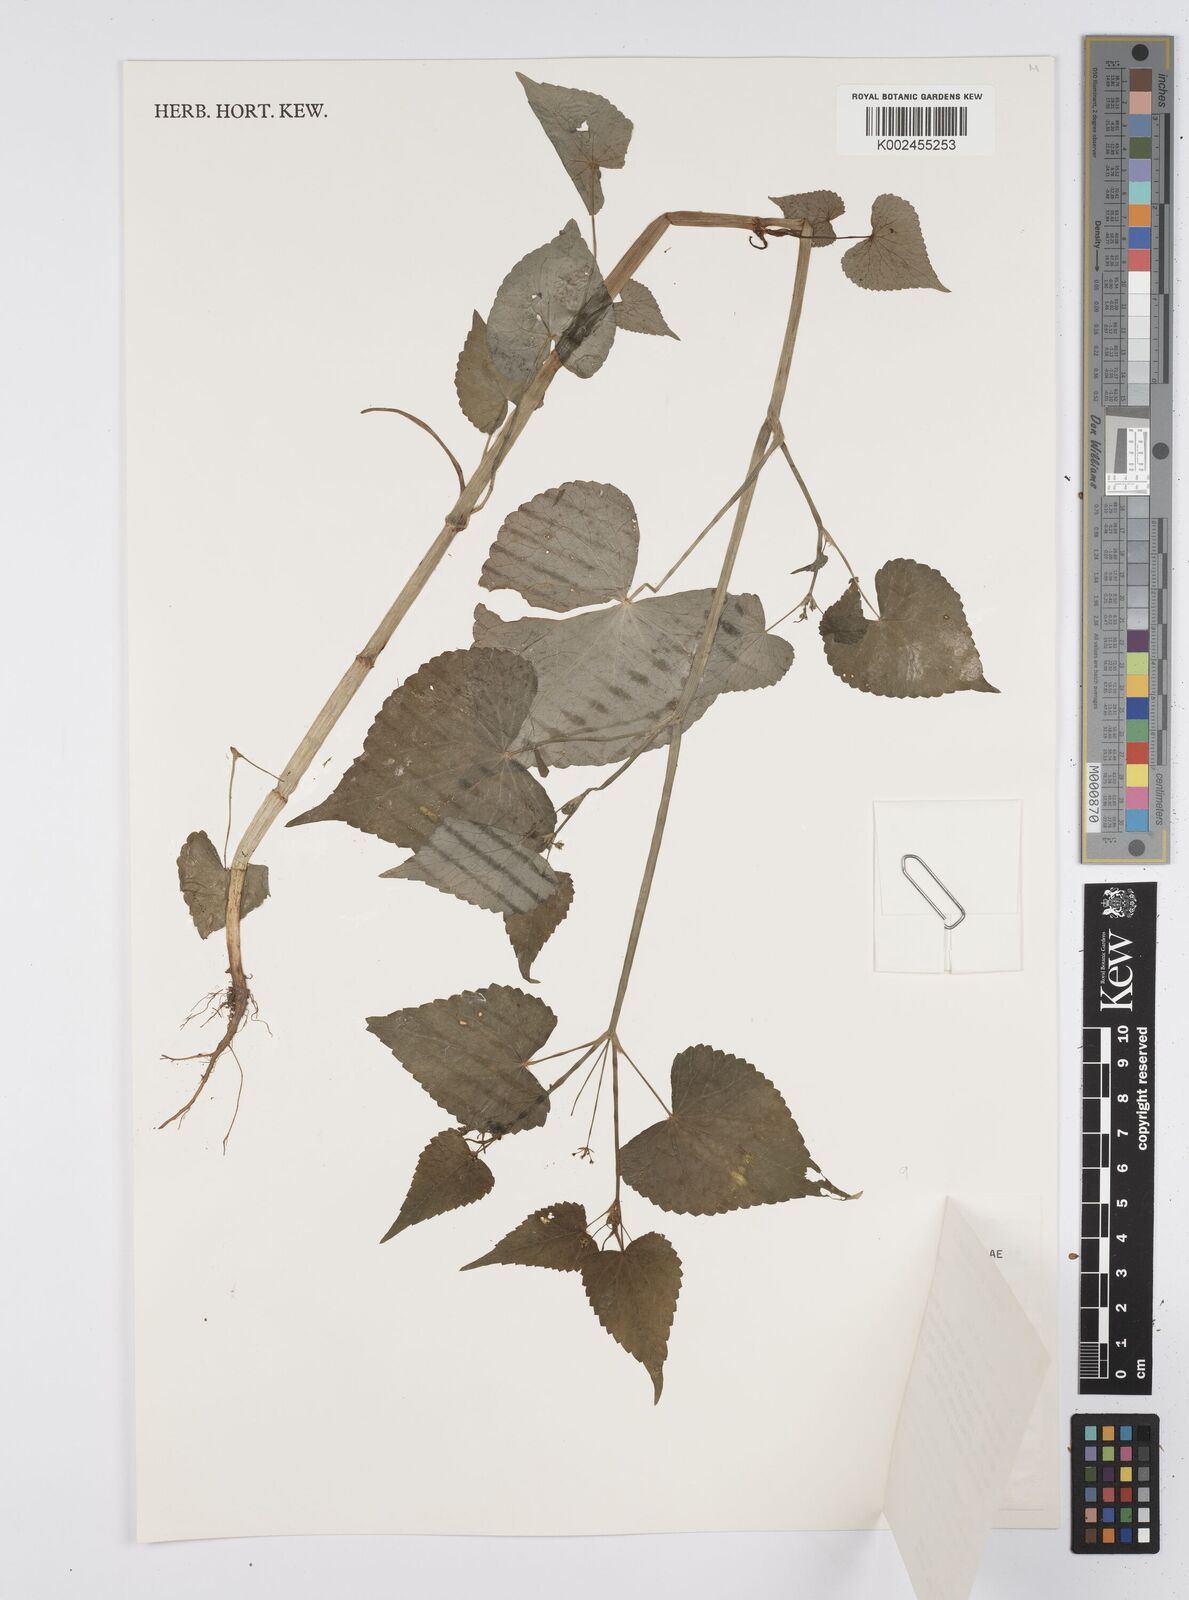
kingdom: Plantae
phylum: Tracheophyta
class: Magnoliopsida
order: Apiales
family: Apiaceae
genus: Azorella
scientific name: Azorella
